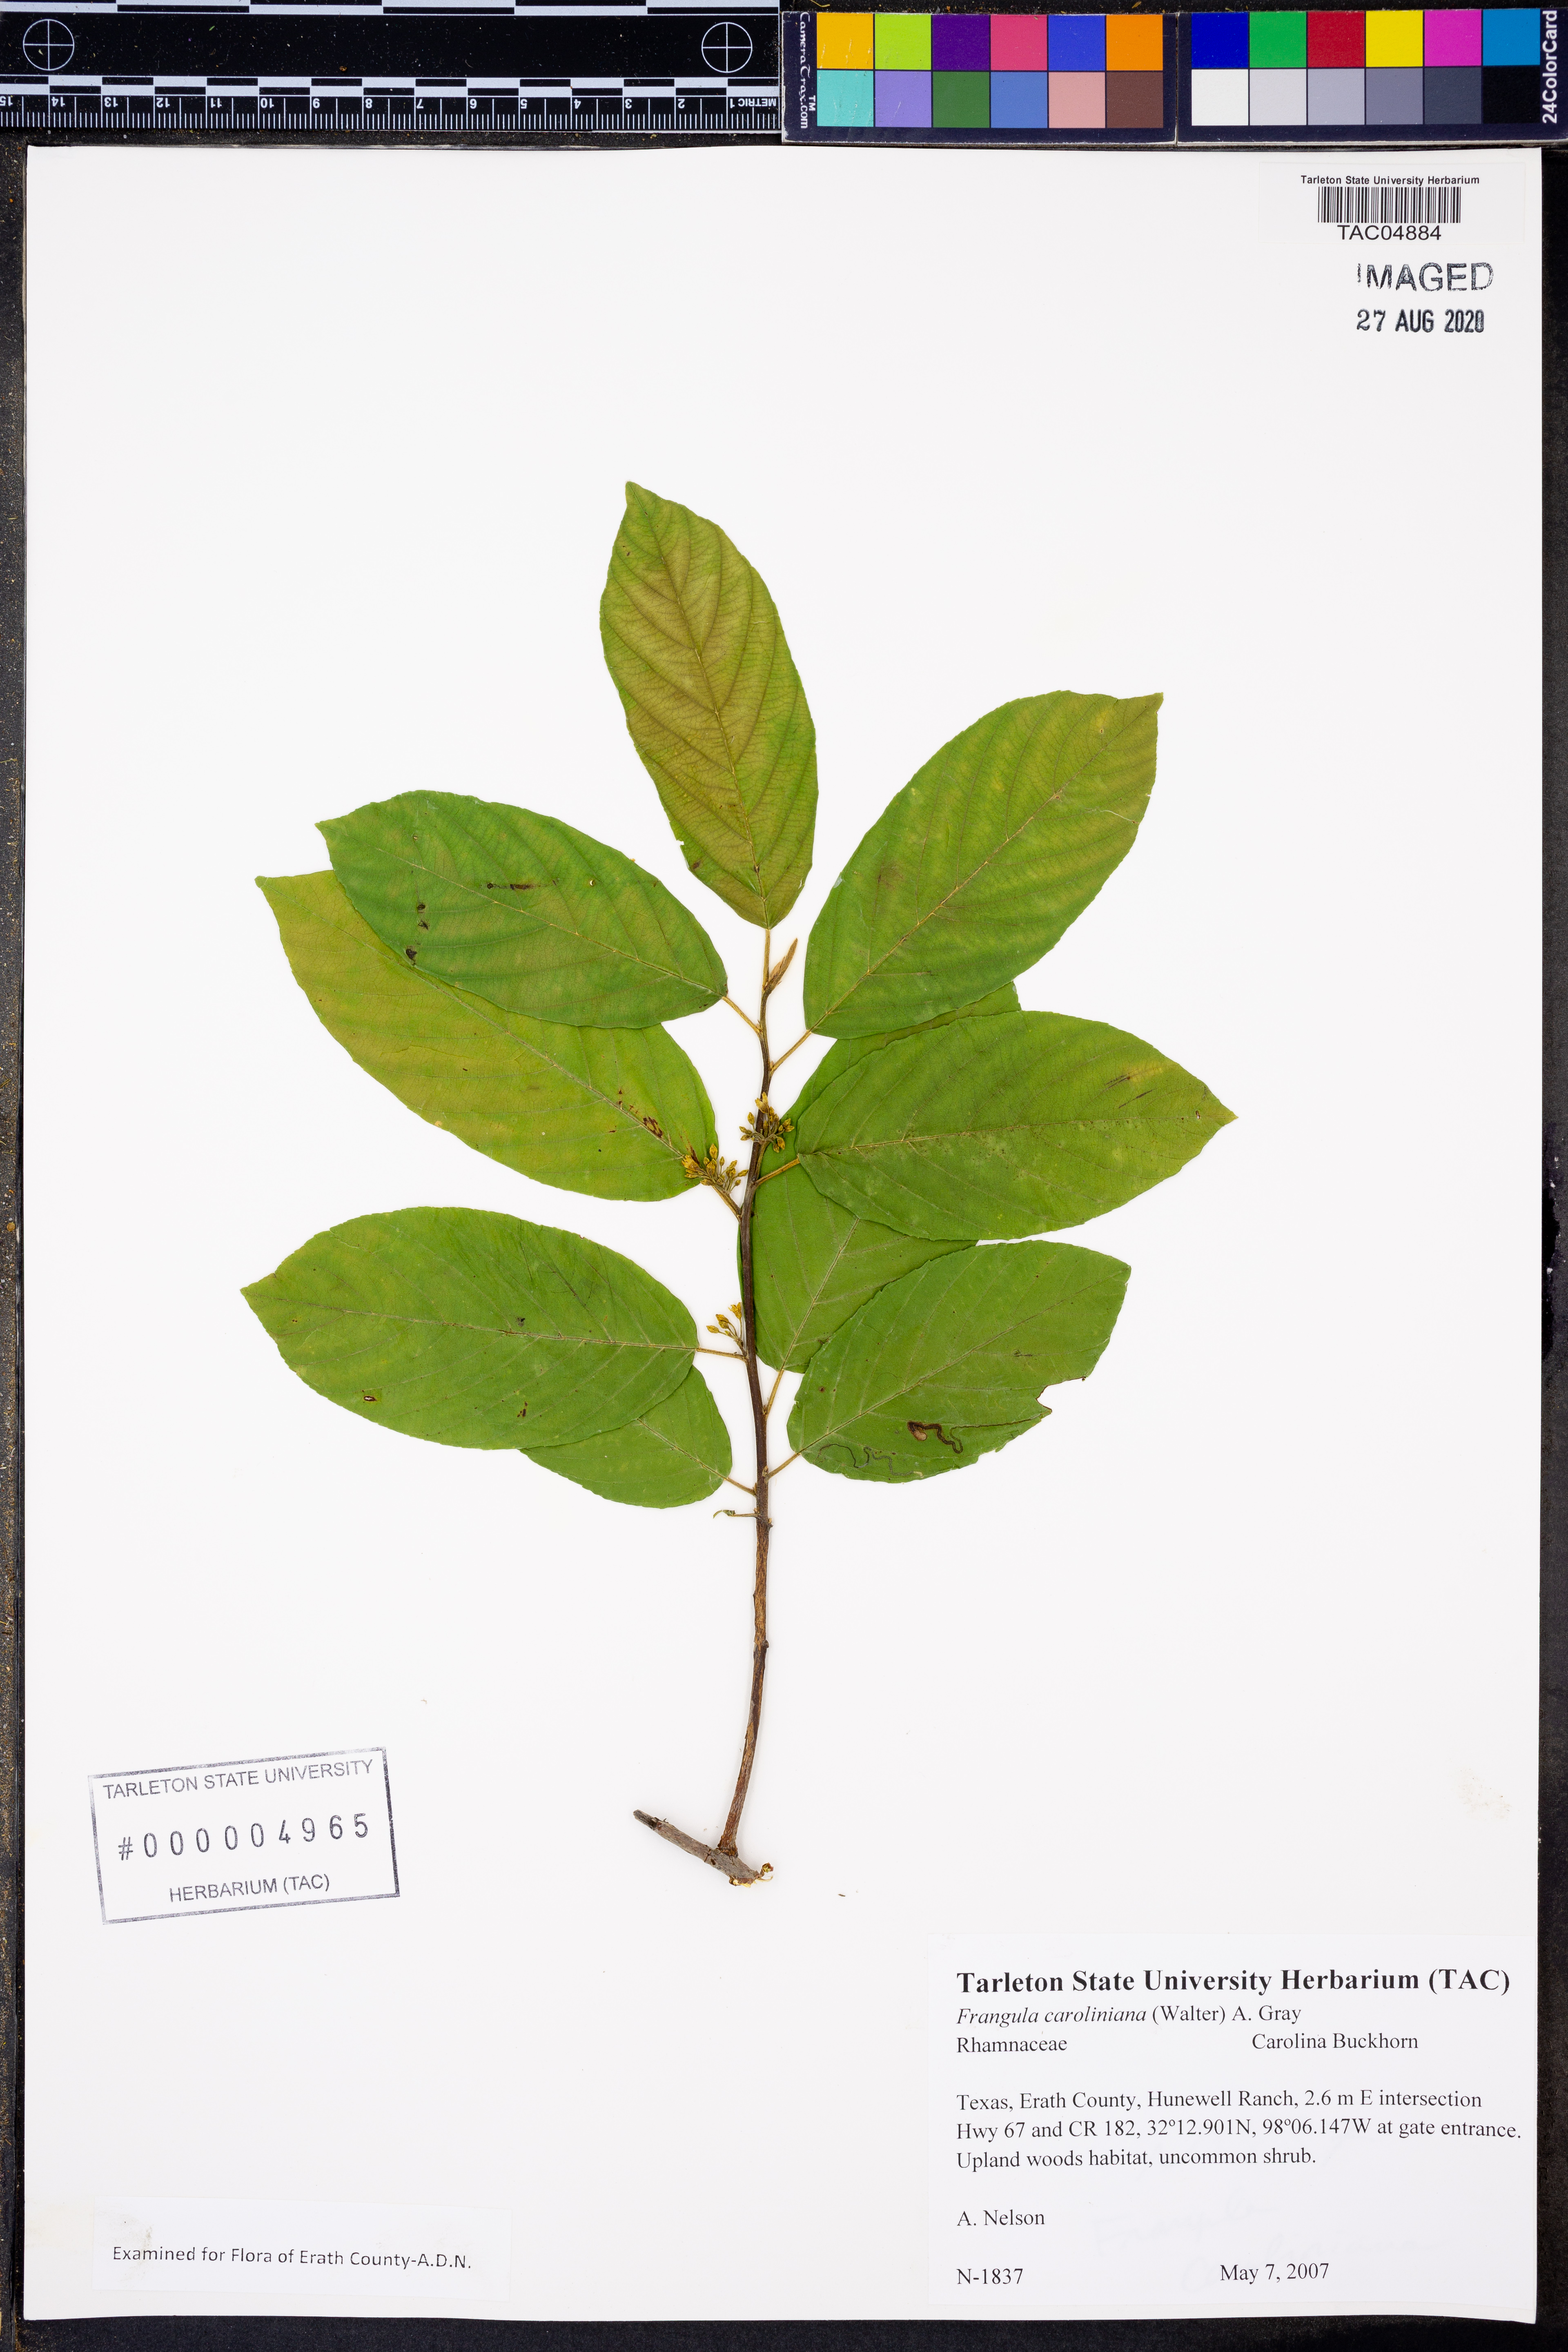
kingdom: Plantae
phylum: Tracheophyta
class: Magnoliopsida
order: Rosales
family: Rhamnaceae
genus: Frangula
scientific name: Frangula caroliniana
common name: Carolina buckthorn
